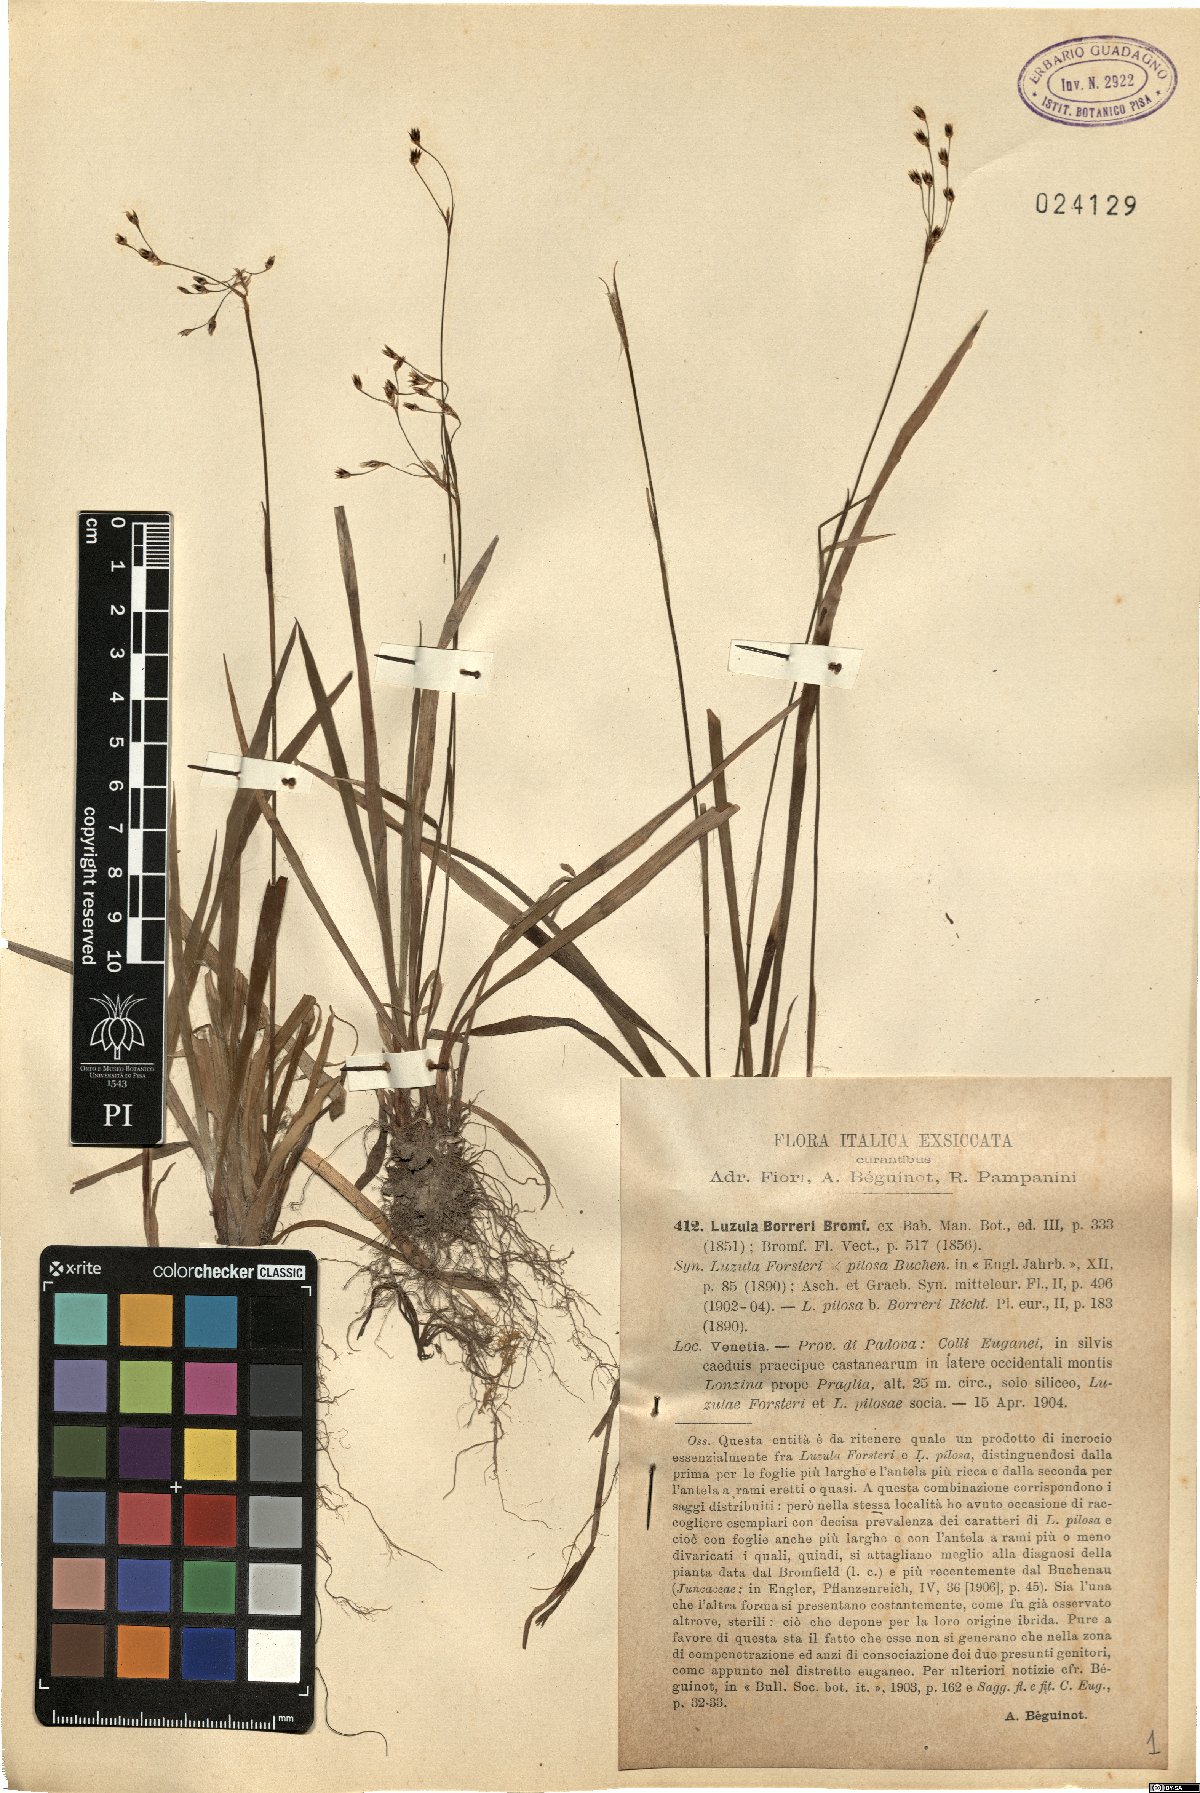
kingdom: Plantae
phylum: Tracheophyta
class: Liliopsida
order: Poales
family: Juncaceae
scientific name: Juncaceae
